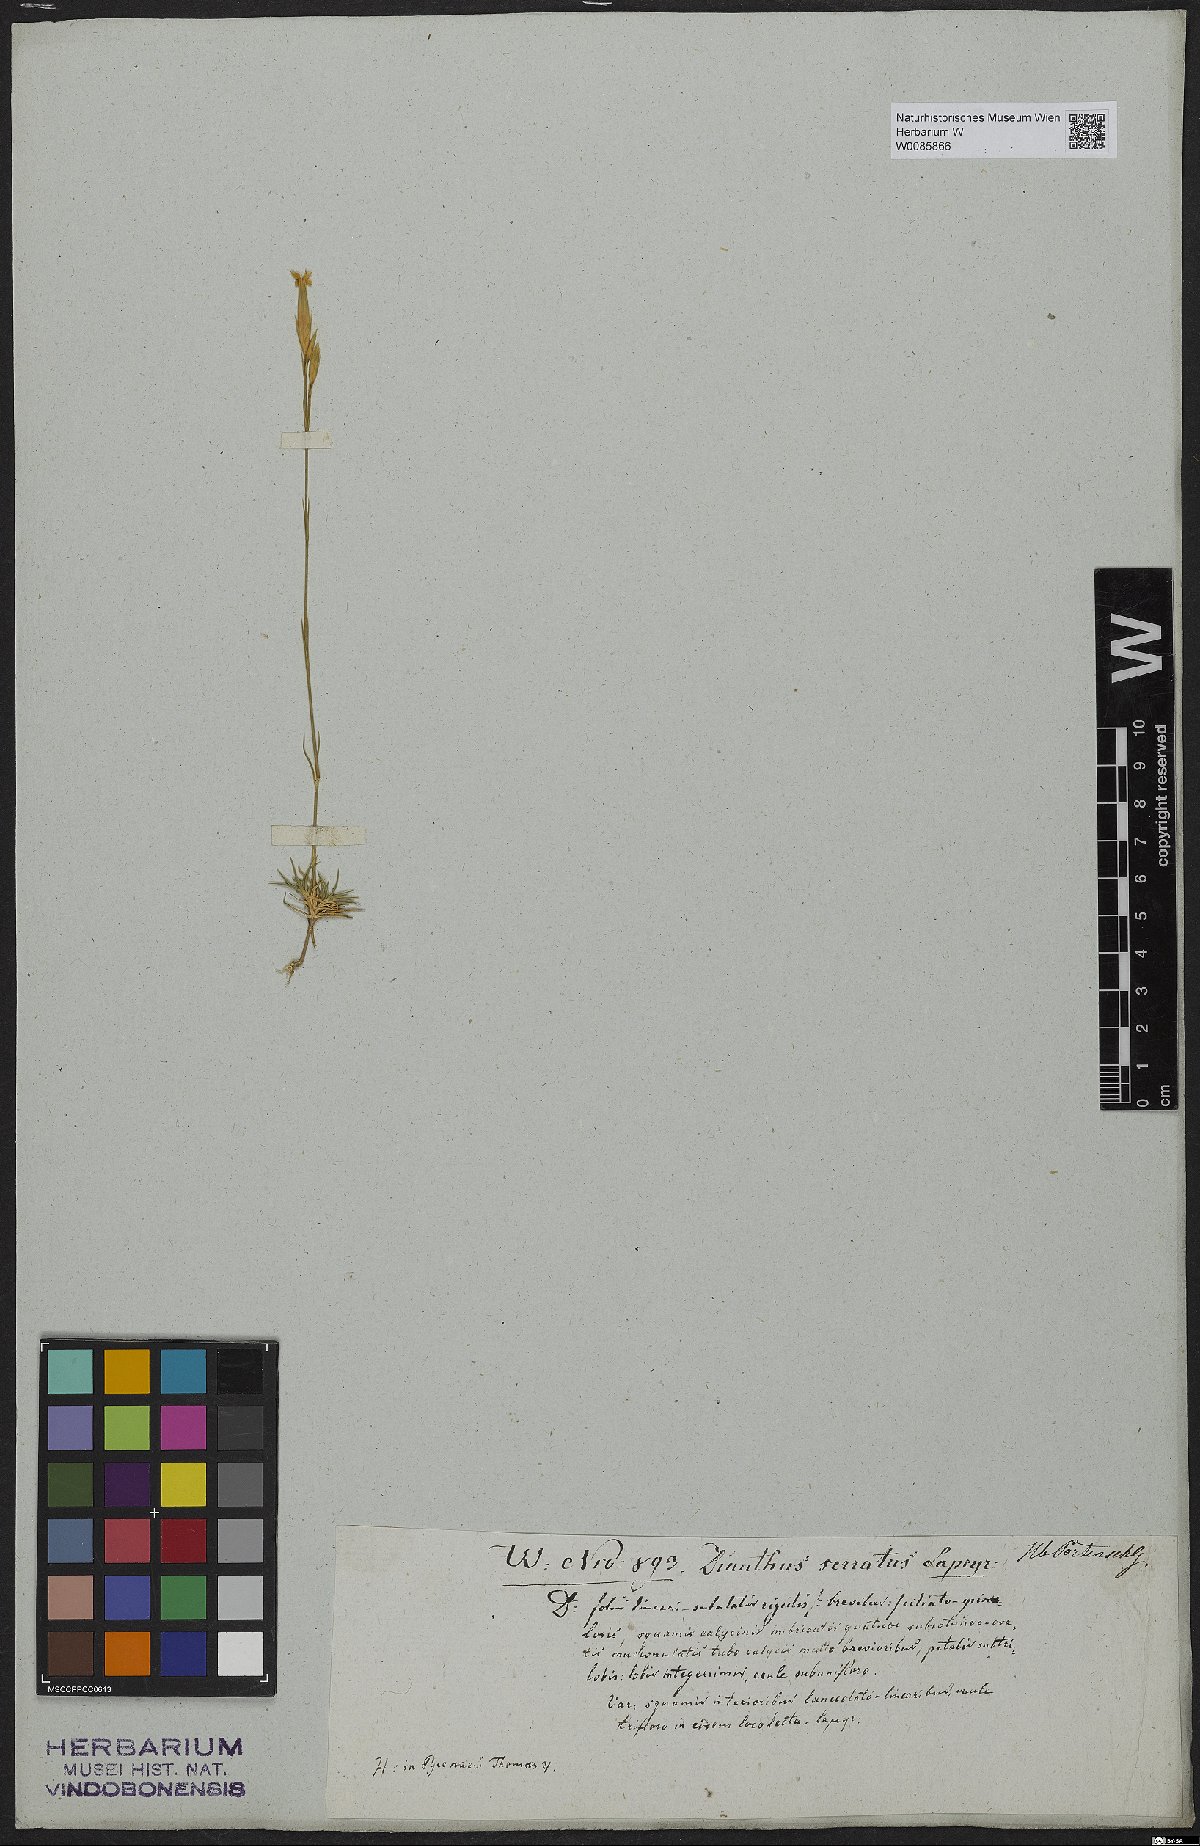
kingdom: Plantae
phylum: Tracheophyta
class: Magnoliopsida
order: Caryophyllales
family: Caryophyllaceae
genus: Dianthus
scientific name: Dianthus pungens
